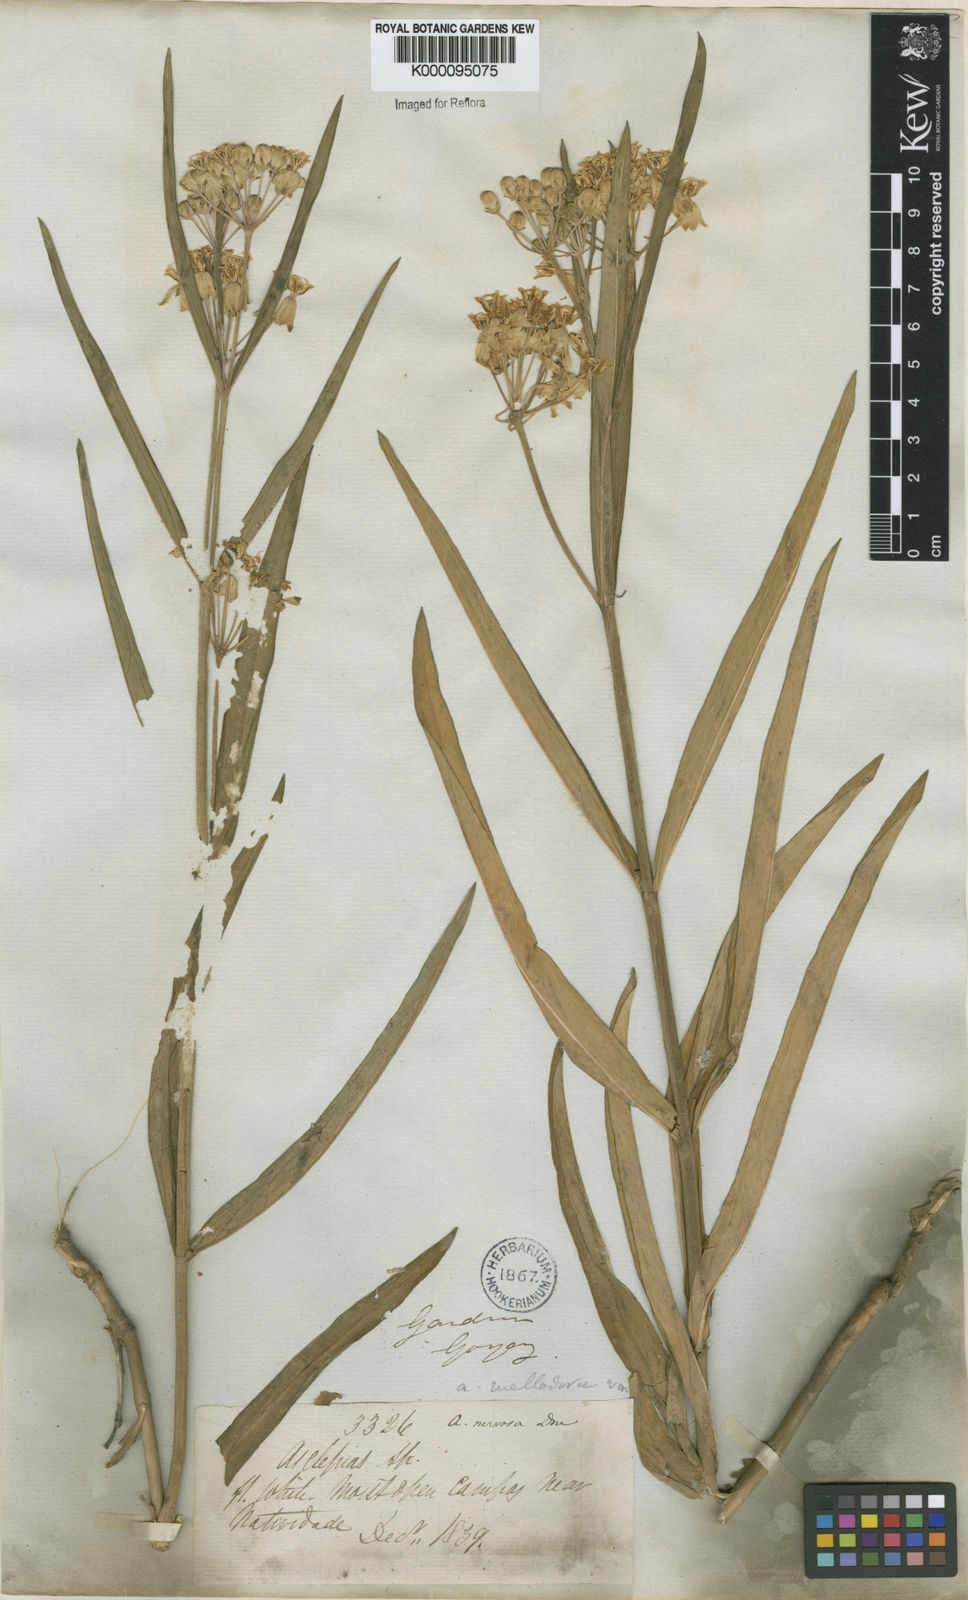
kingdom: Plantae
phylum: Tracheophyta
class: Magnoliopsida
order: Gentianales
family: Apocynaceae
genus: Asclepias
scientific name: Asclepias mellodora
